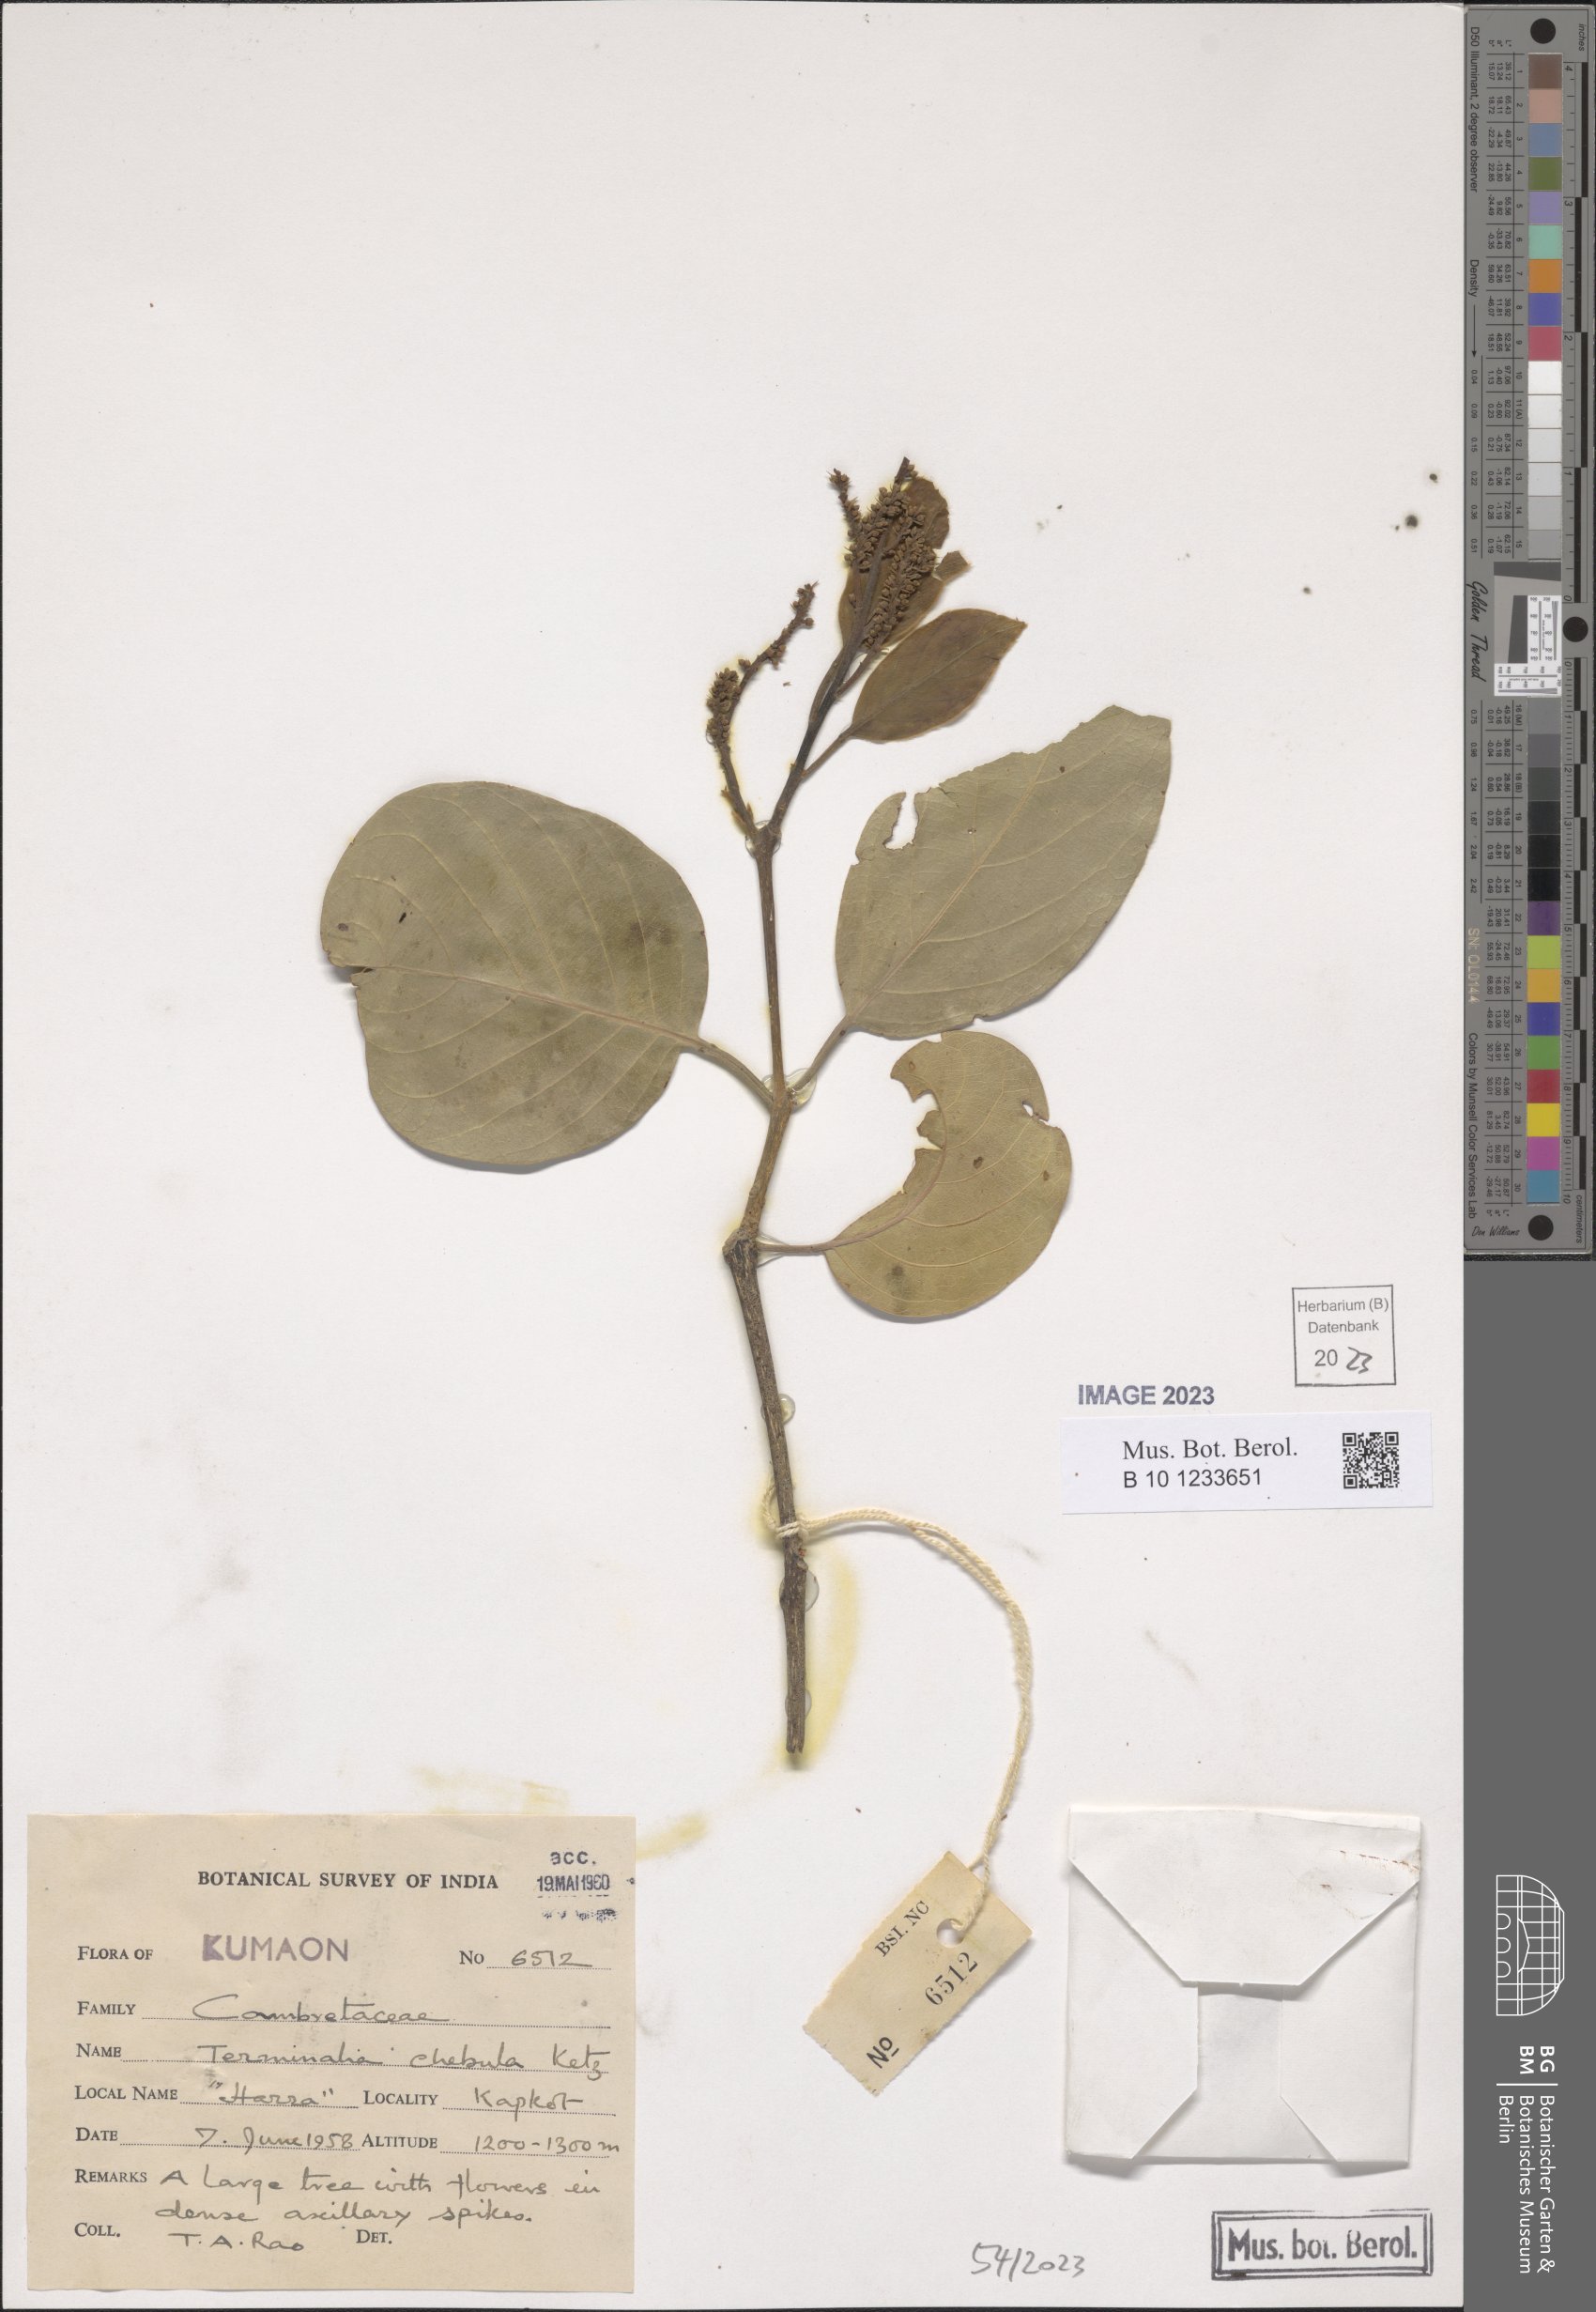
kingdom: Plantae
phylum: Tracheophyta
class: Magnoliopsida
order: Myrtales
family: Combretaceae
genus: Terminalia
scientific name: Terminalia chebula
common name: Myrobalan
